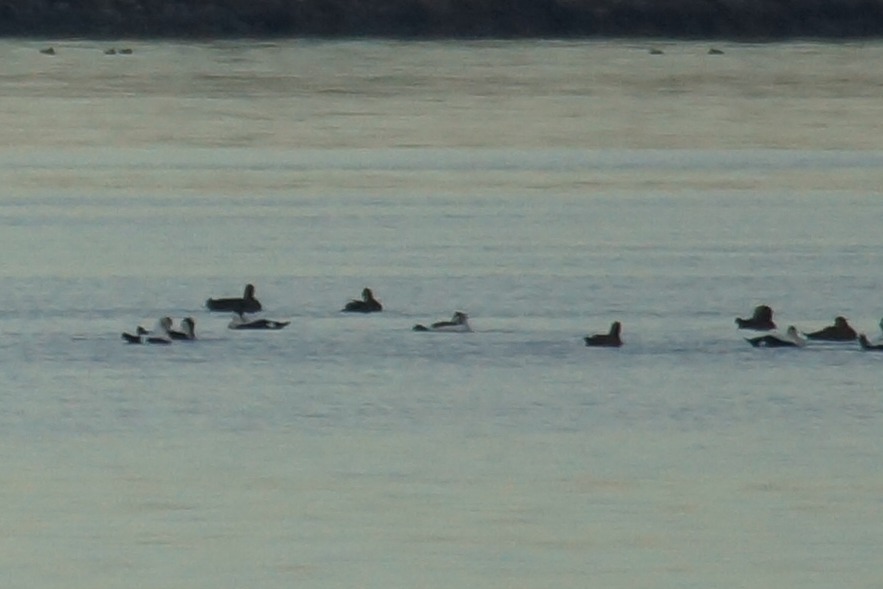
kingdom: Animalia
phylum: Chordata
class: Aves
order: Anseriformes
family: Anatidae
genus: Somateria
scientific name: Somateria mollissima
